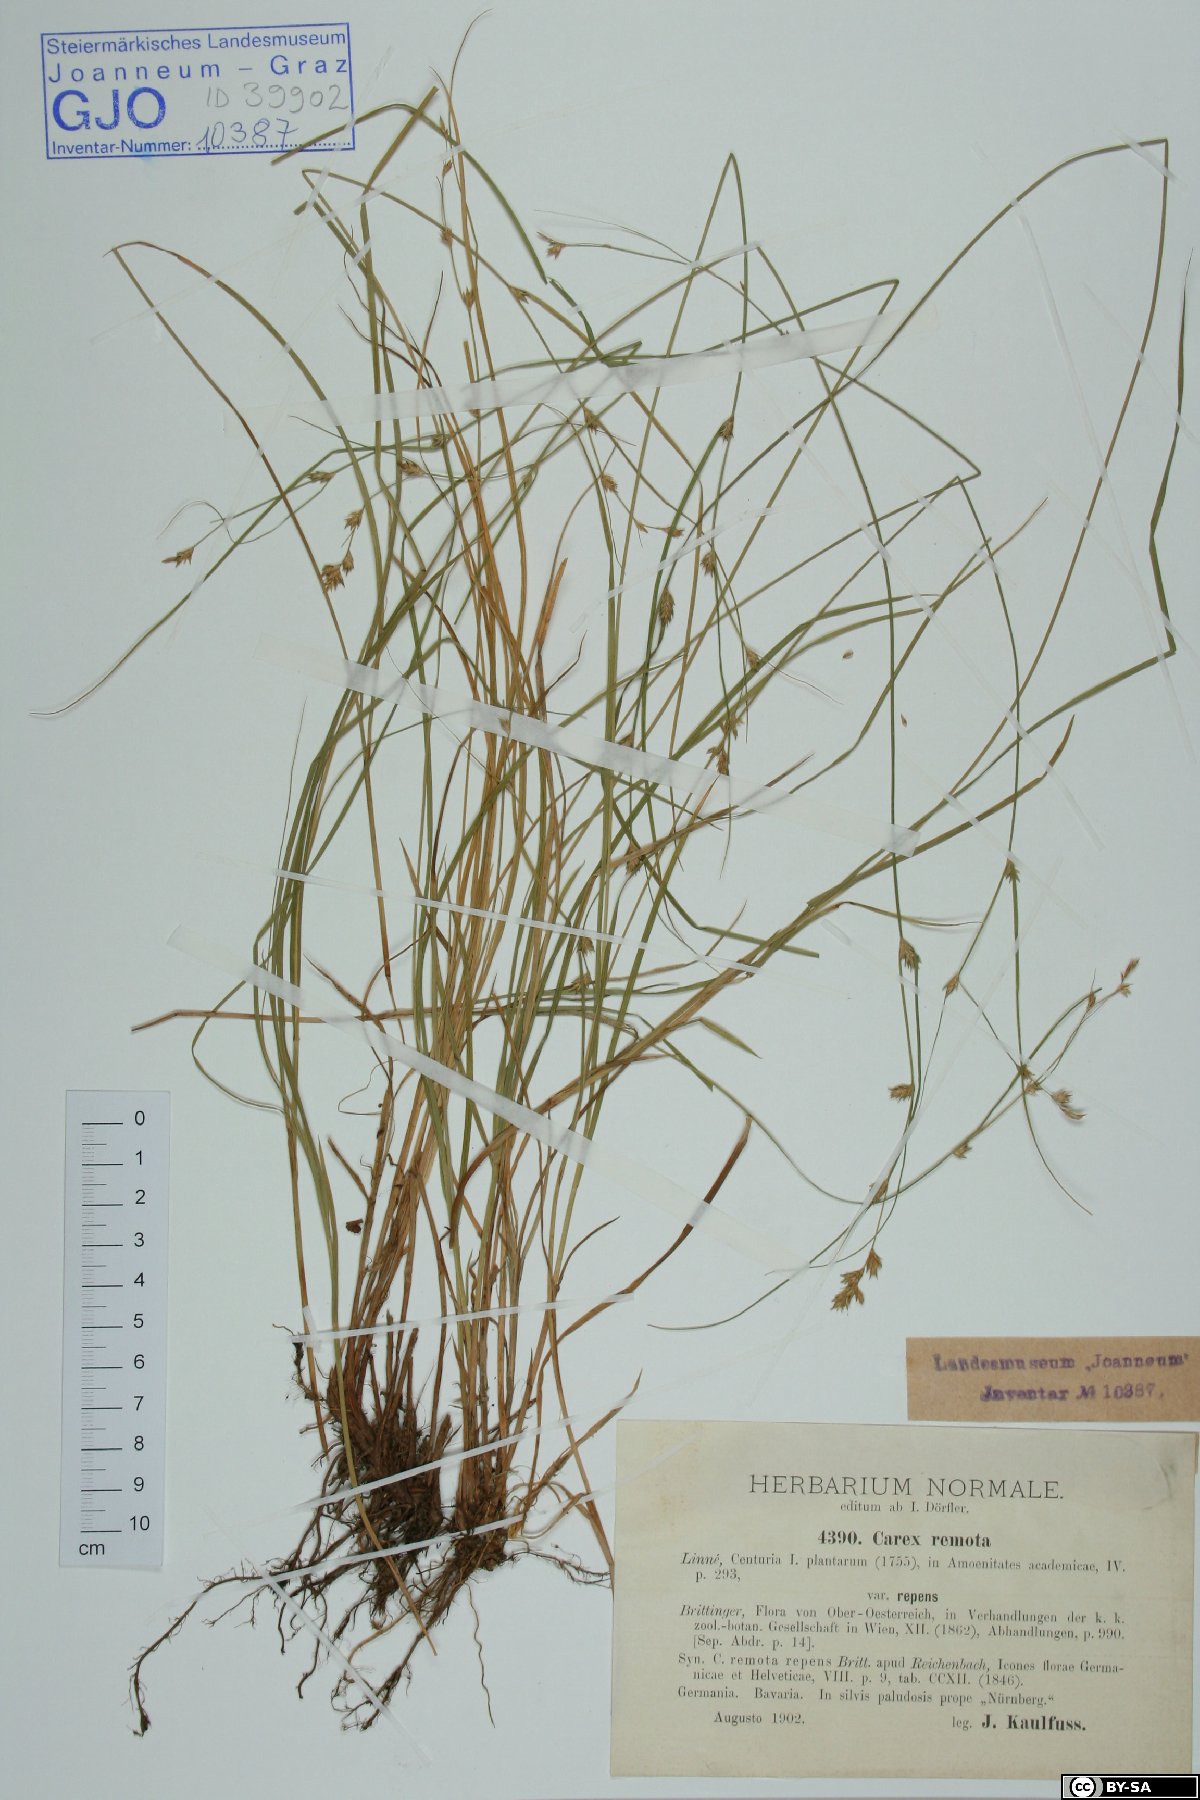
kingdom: Plantae
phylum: Tracheophyta
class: Liliopsida
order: Poales
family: Cyperaceae
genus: Carex
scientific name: Carex remota
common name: Remote sedge
